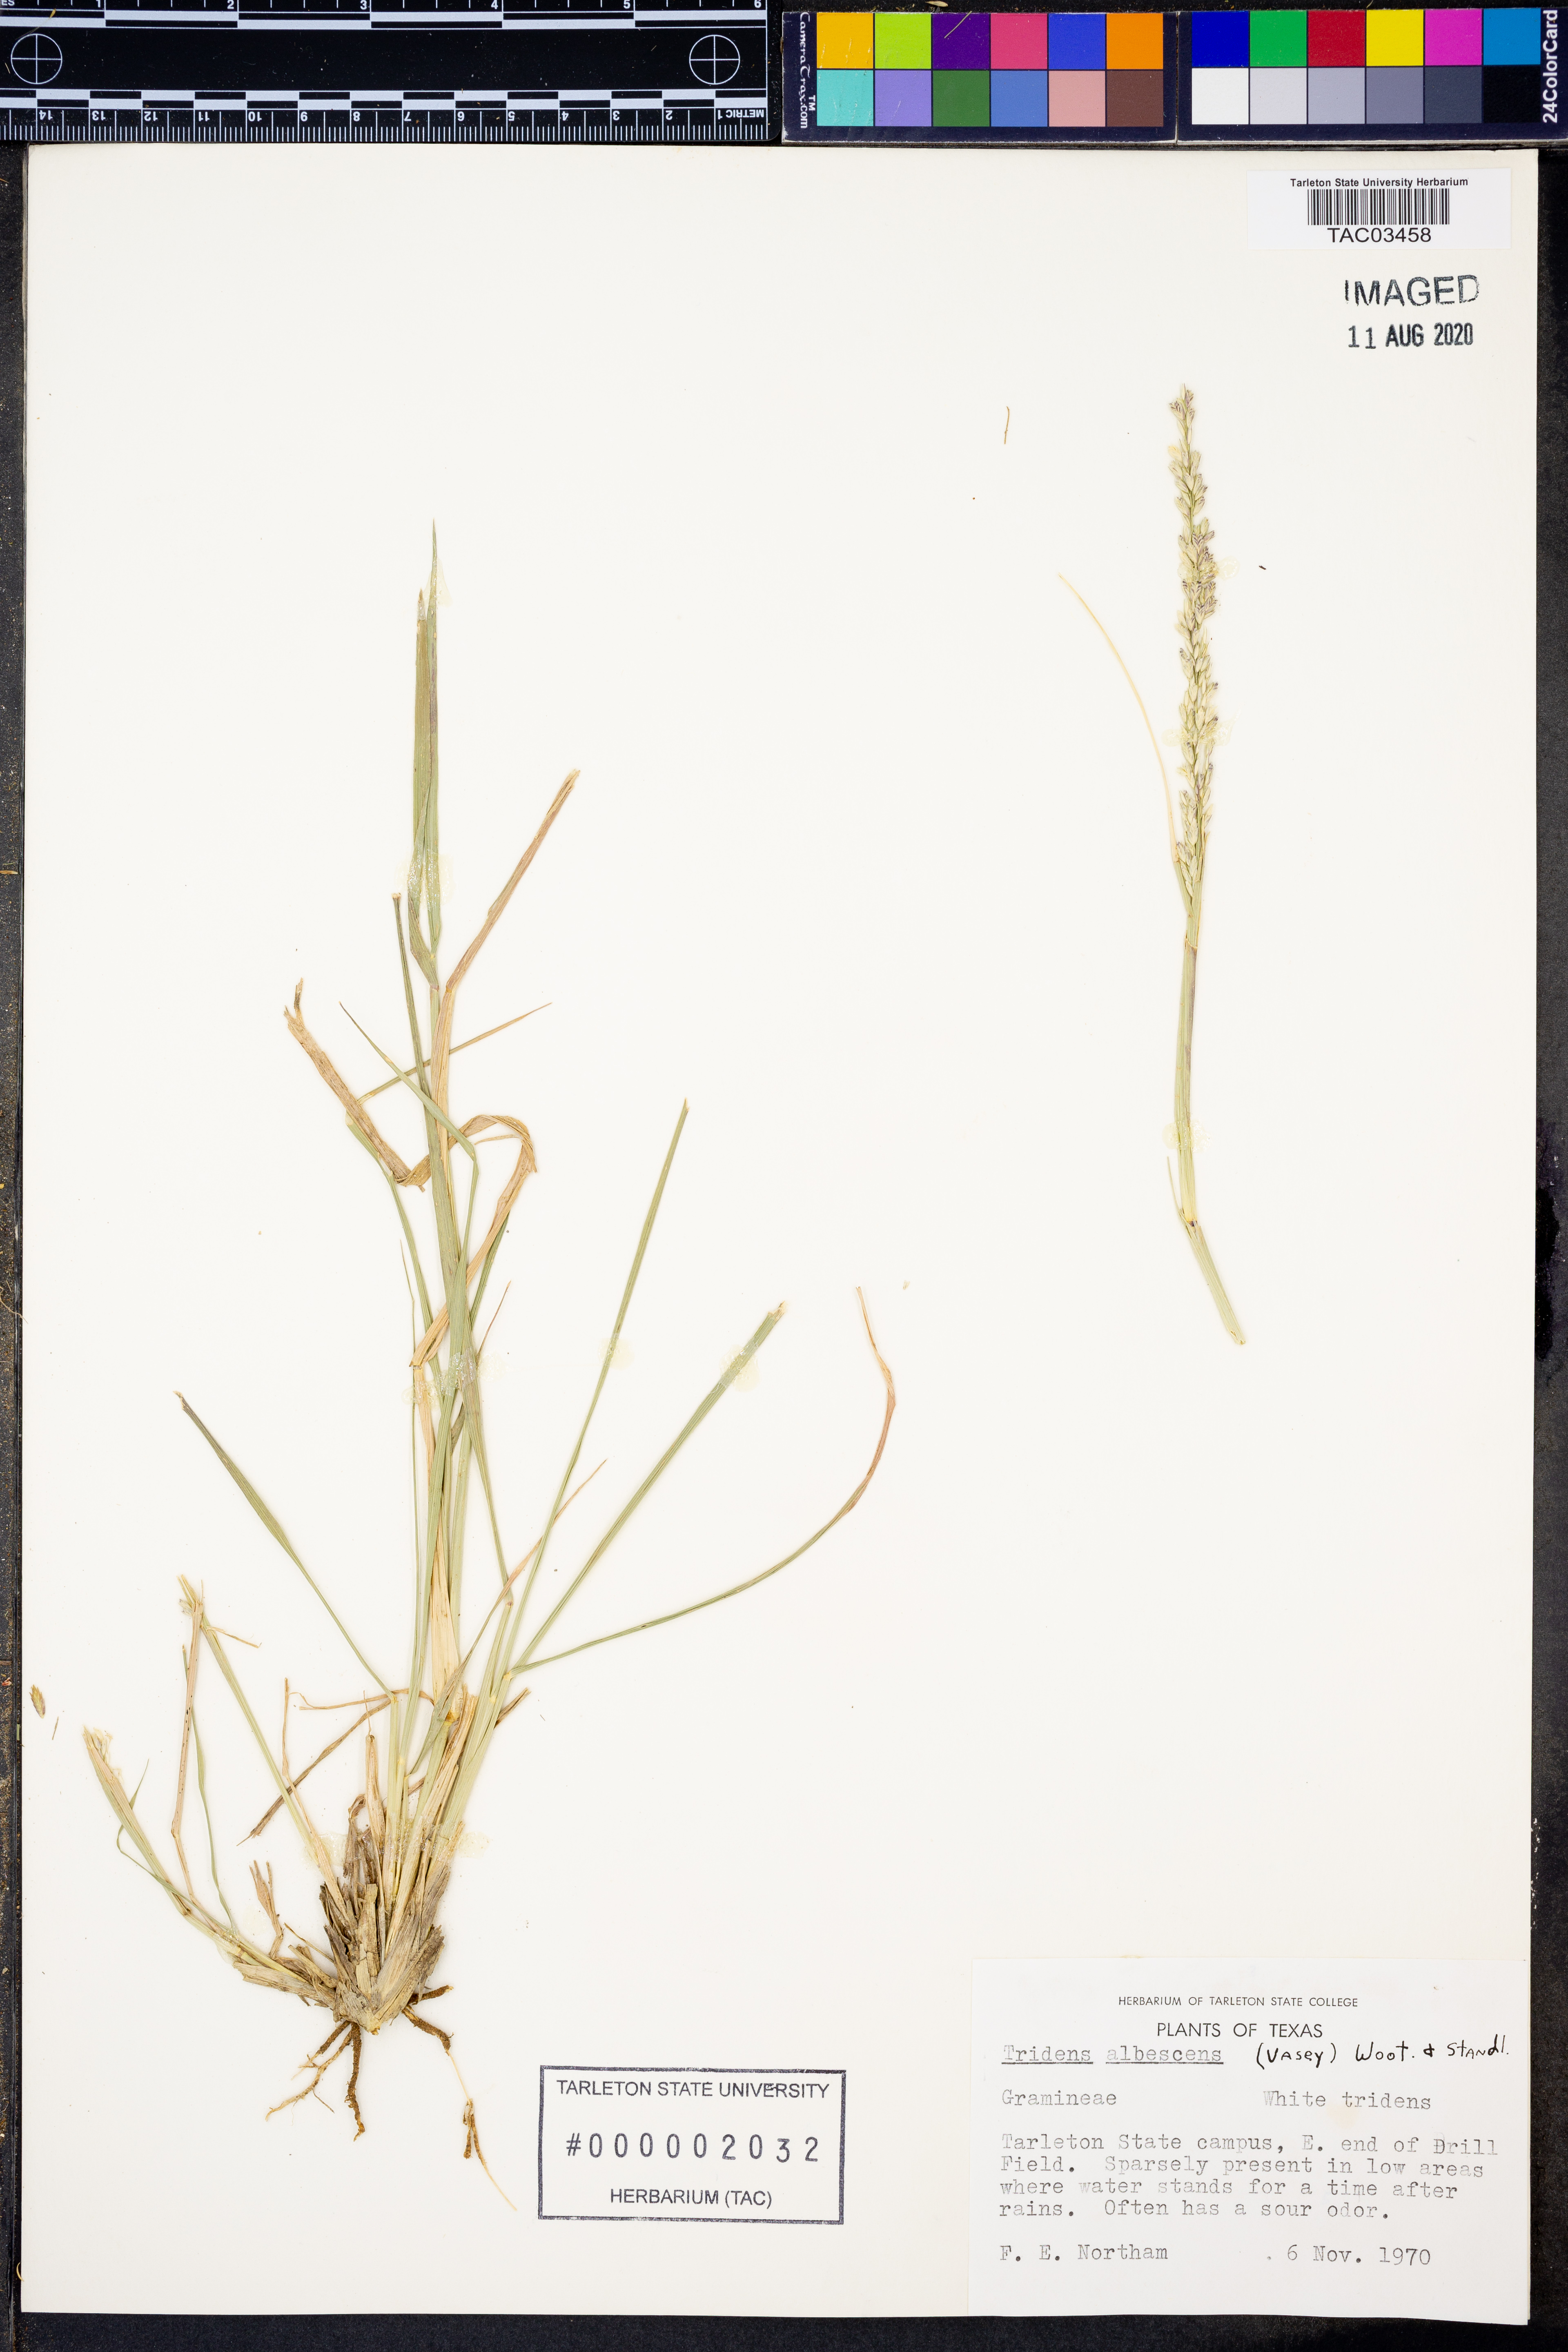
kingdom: Plantae
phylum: Tracheophyta
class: Liliopsida
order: Poales
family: Poaceae
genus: Tridens
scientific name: Tridens albescens
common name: White tridens
